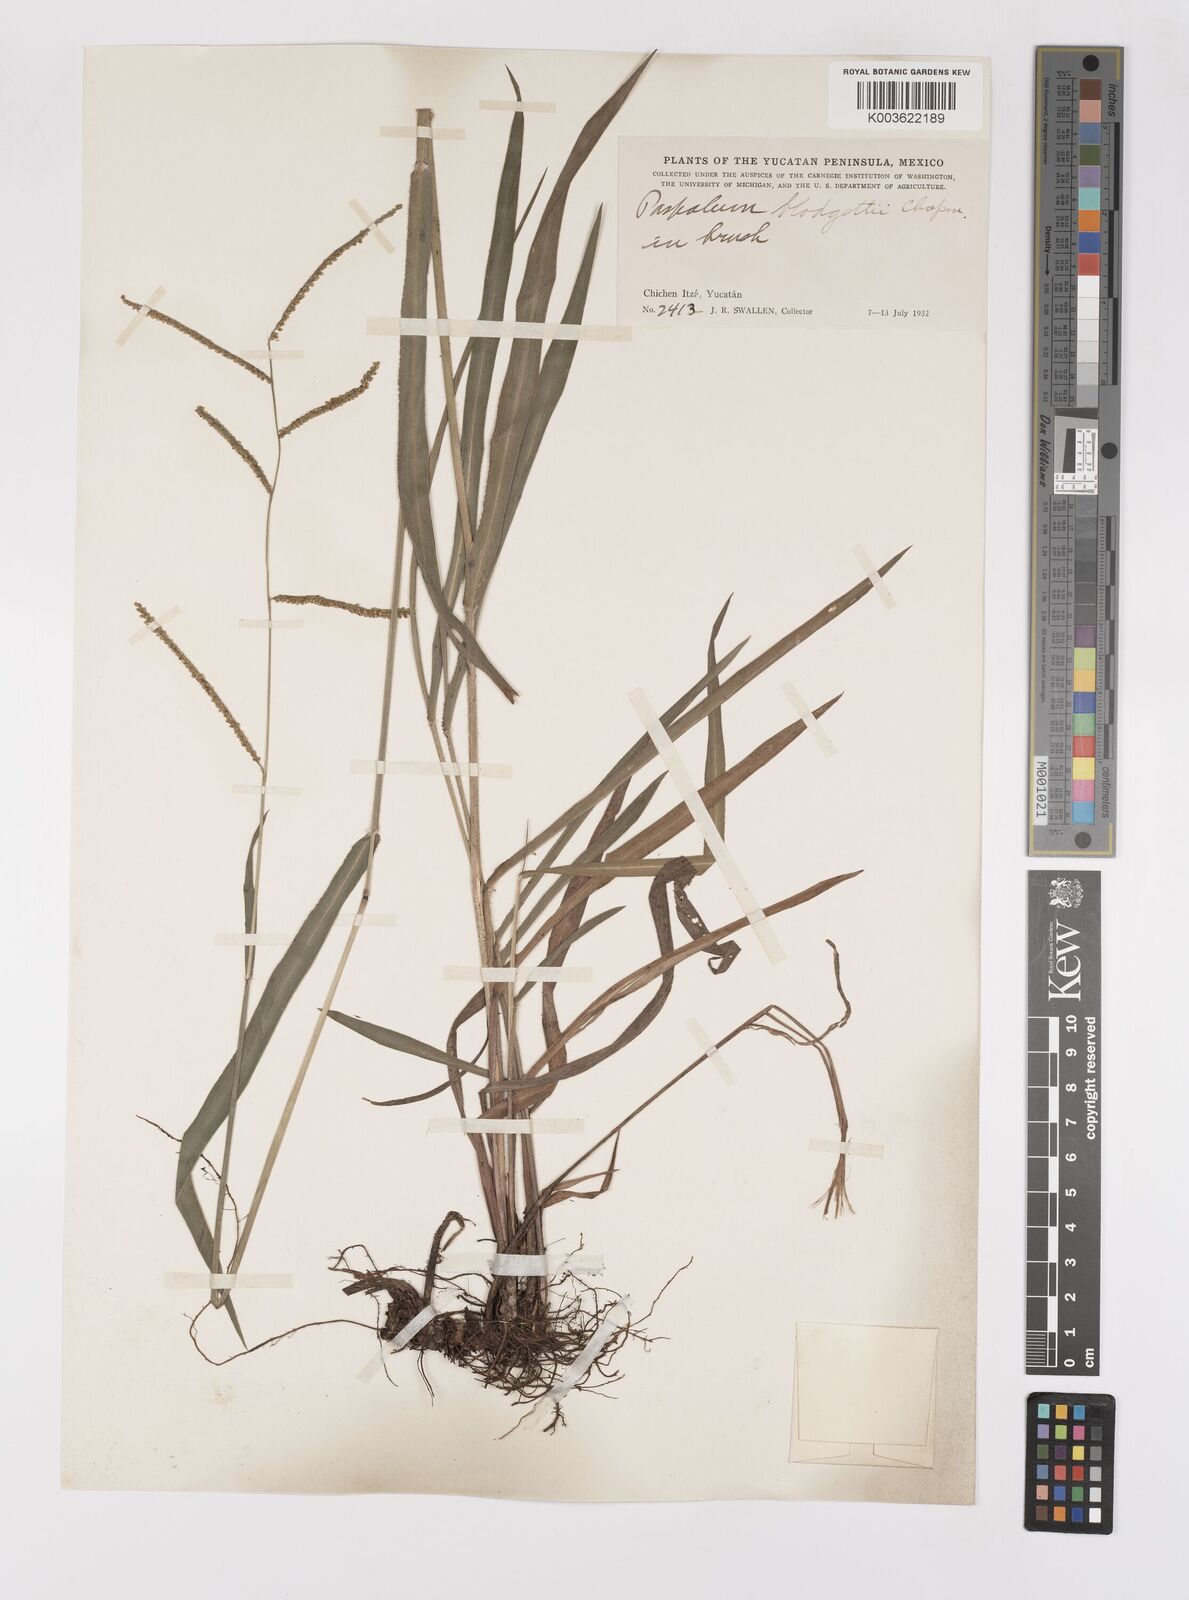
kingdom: Plantae
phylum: Tracheophyta
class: Liliopsida
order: Poales
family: Poaceae
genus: Paspalum
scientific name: Paspalum blodgettii
